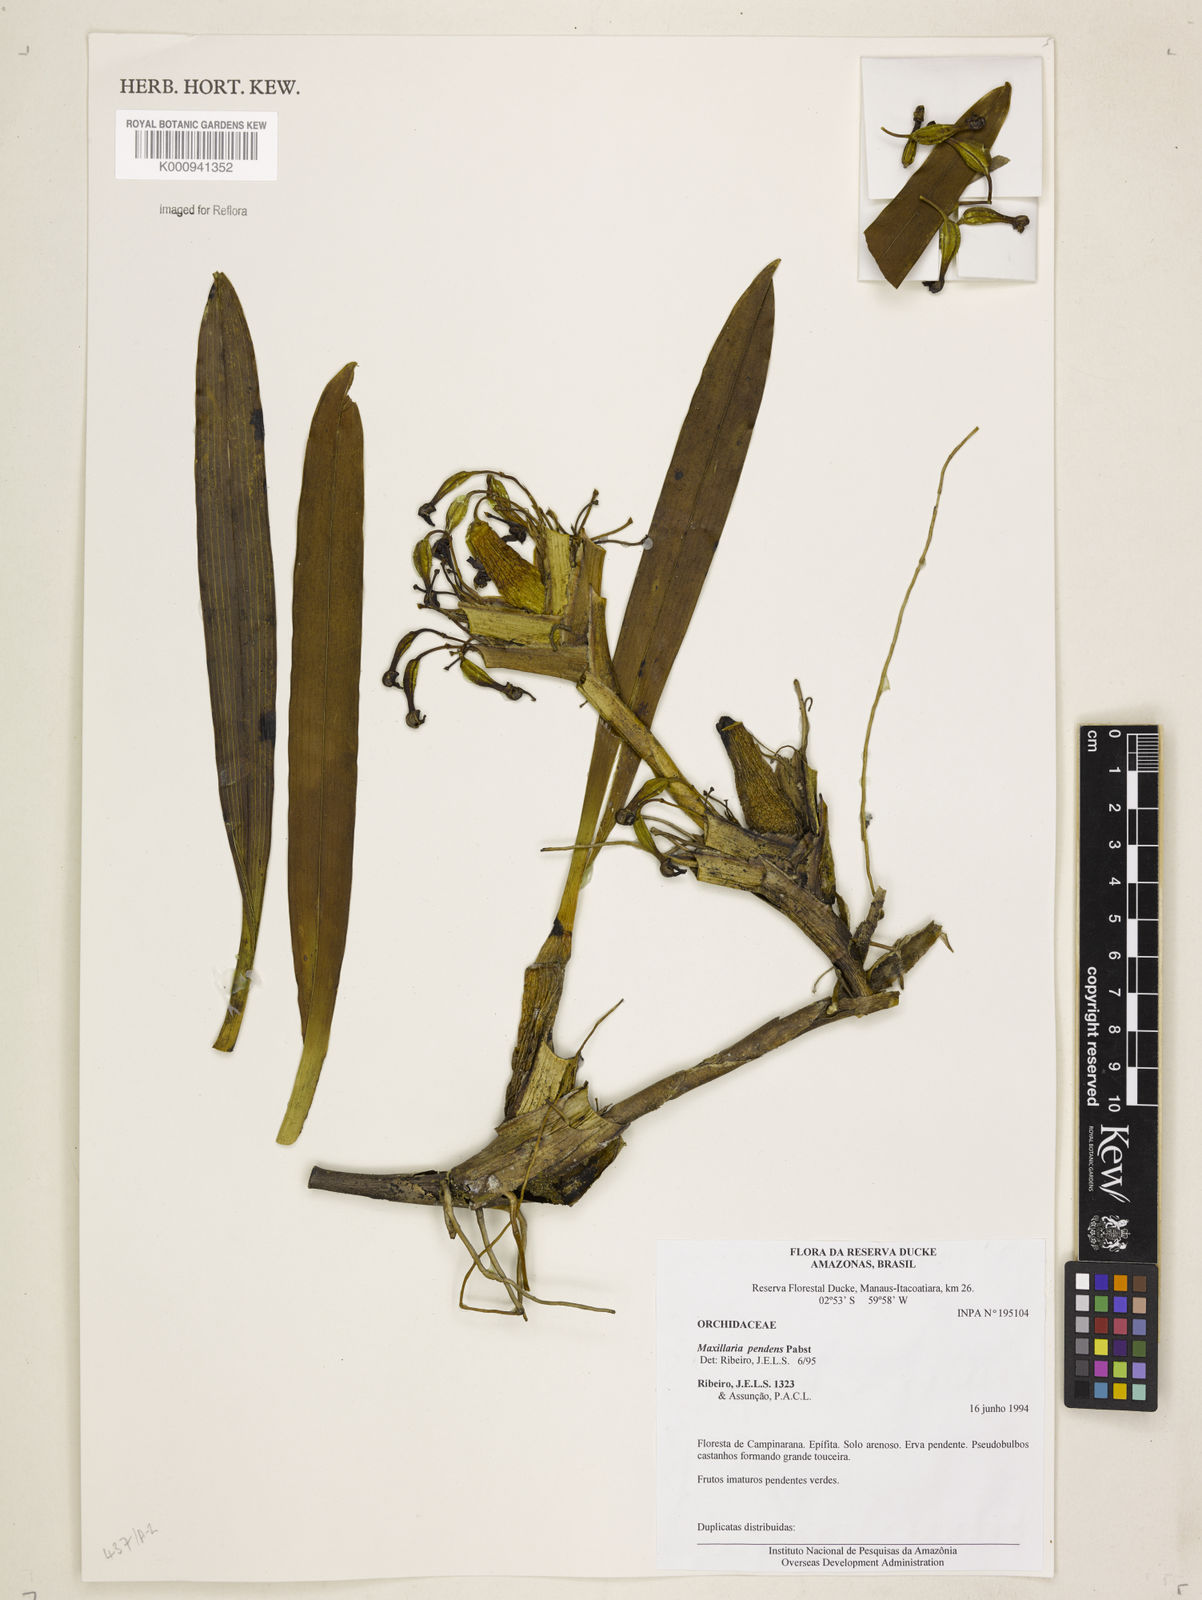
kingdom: Plantae
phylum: Tracheophyta
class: Liliopsida
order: Asparagales
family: Orchidaceae
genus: Maxillaria
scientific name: Maxillaria pendens
